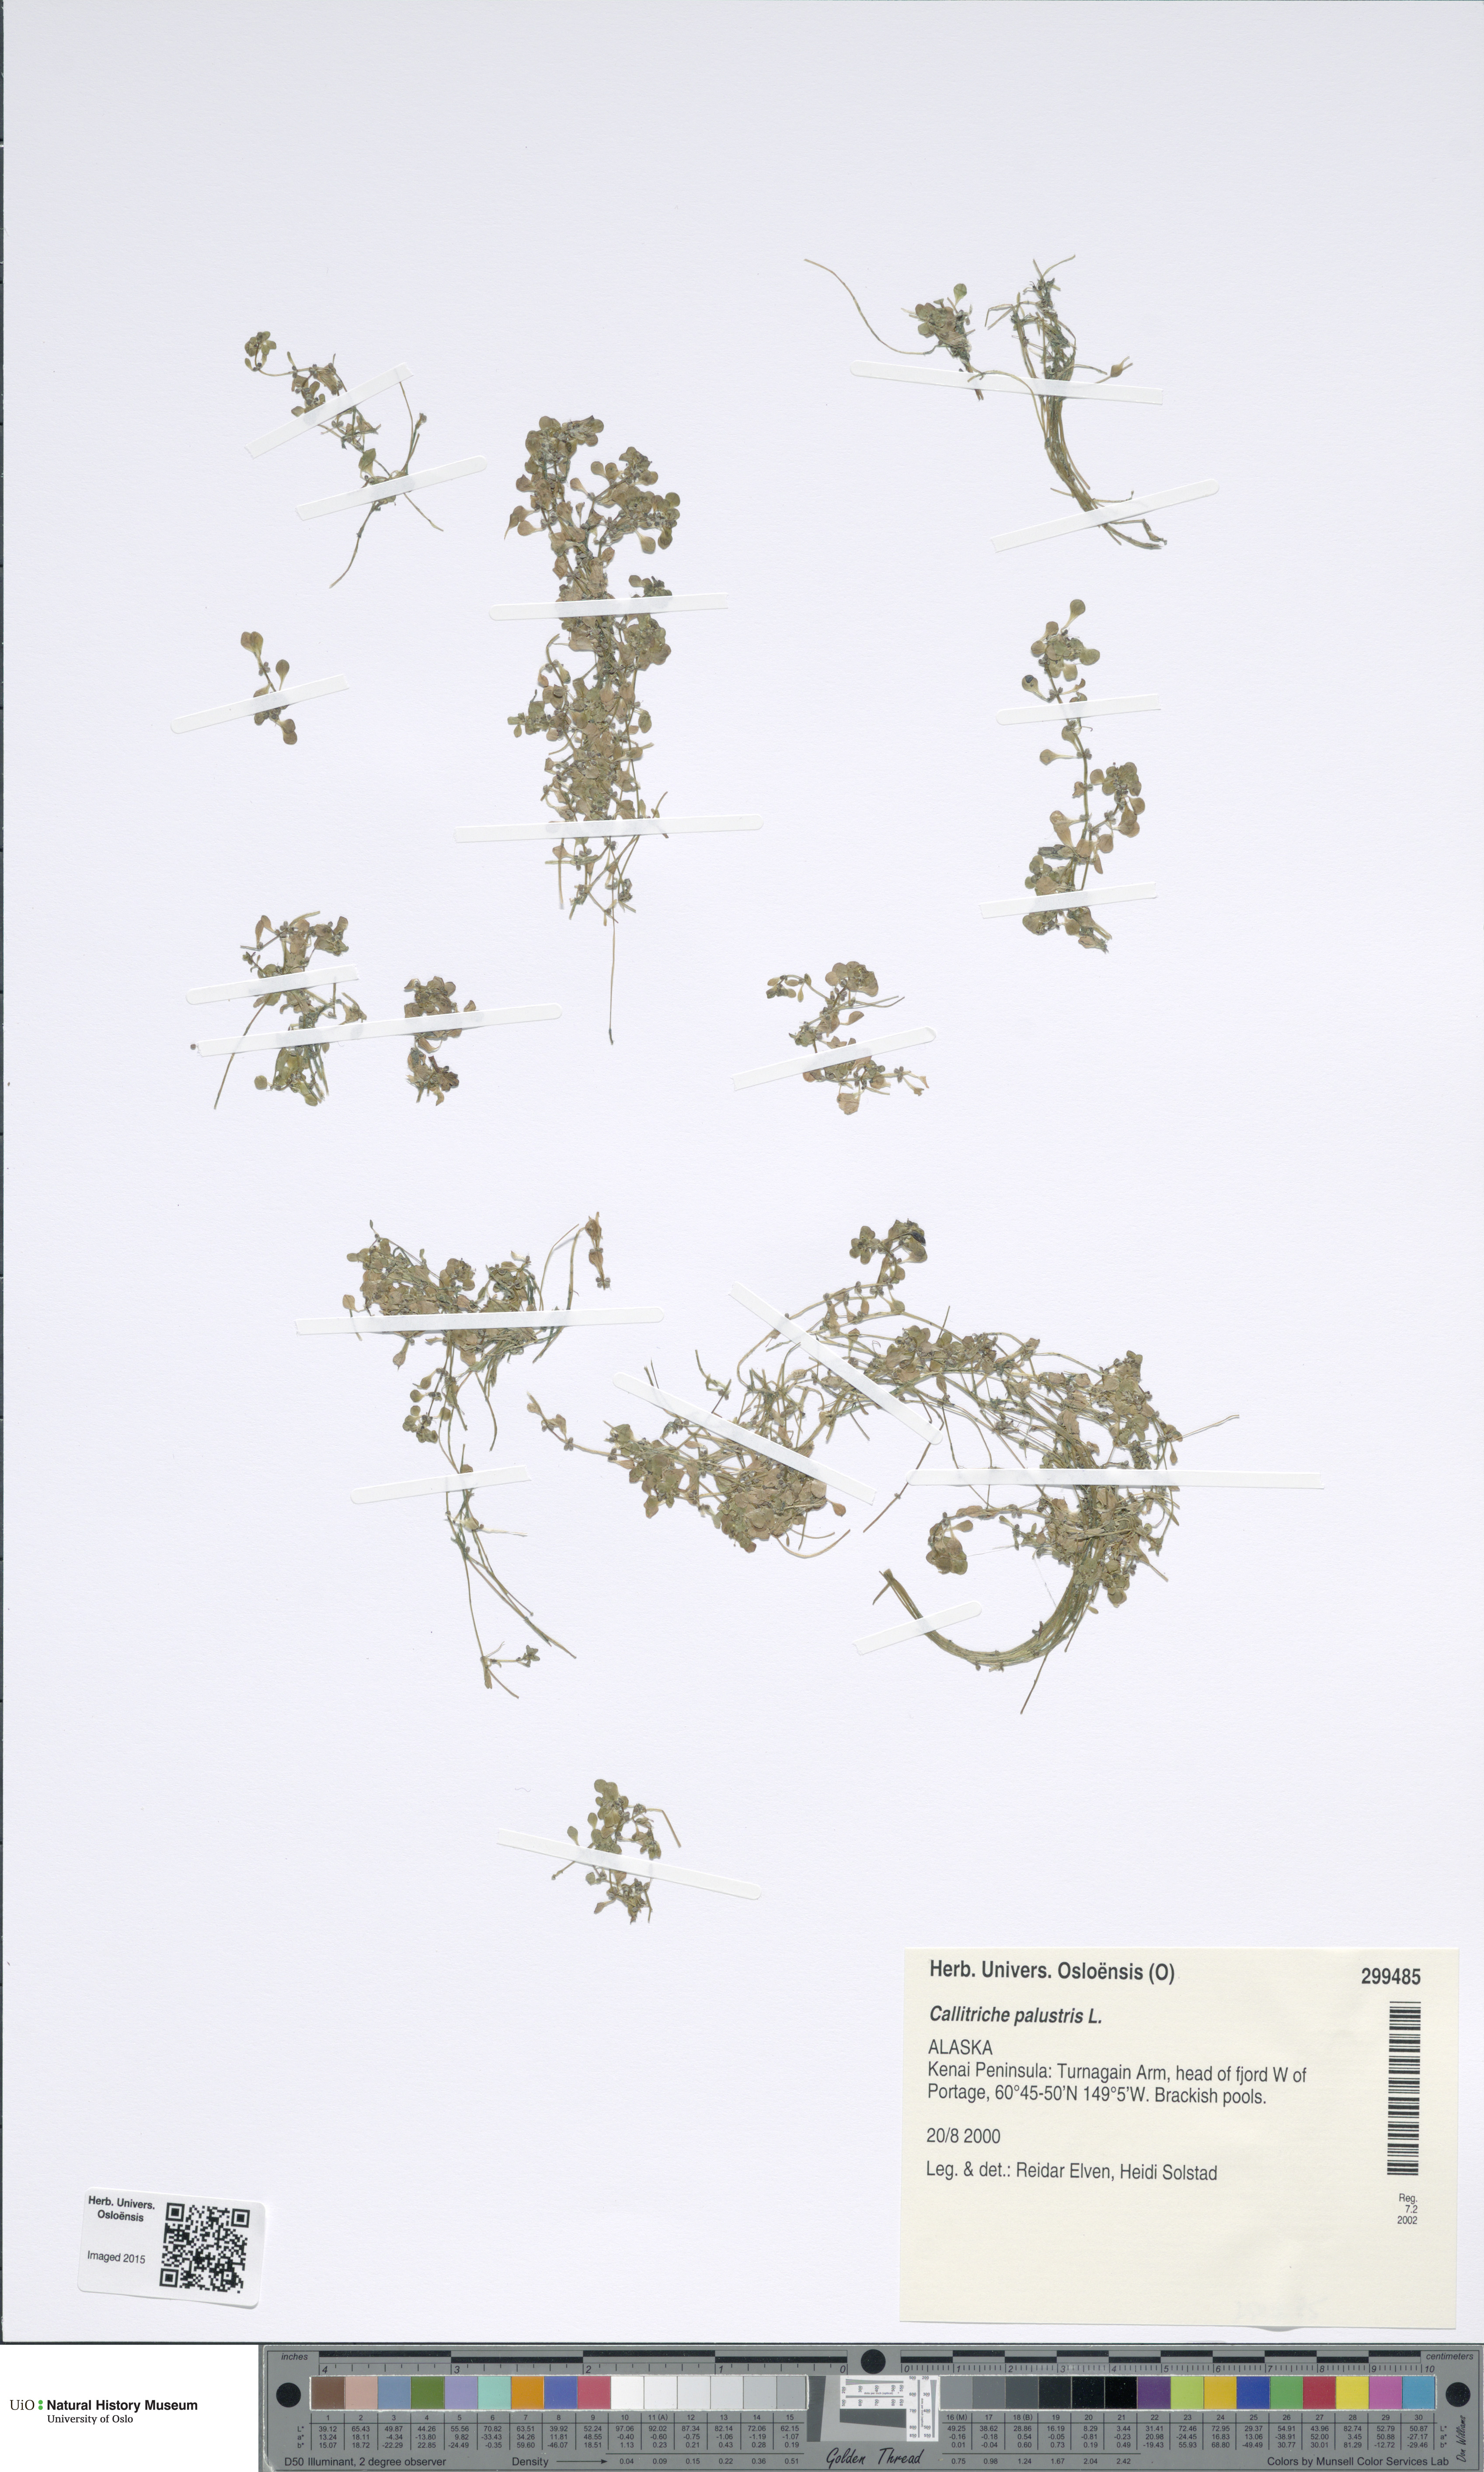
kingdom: Plantae
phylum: Tracheophyta
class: Magnoliopsida
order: Lamiales
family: Plantaginaceae
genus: Callitriche
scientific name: Callitriche palustris
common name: Spring water-starwort
